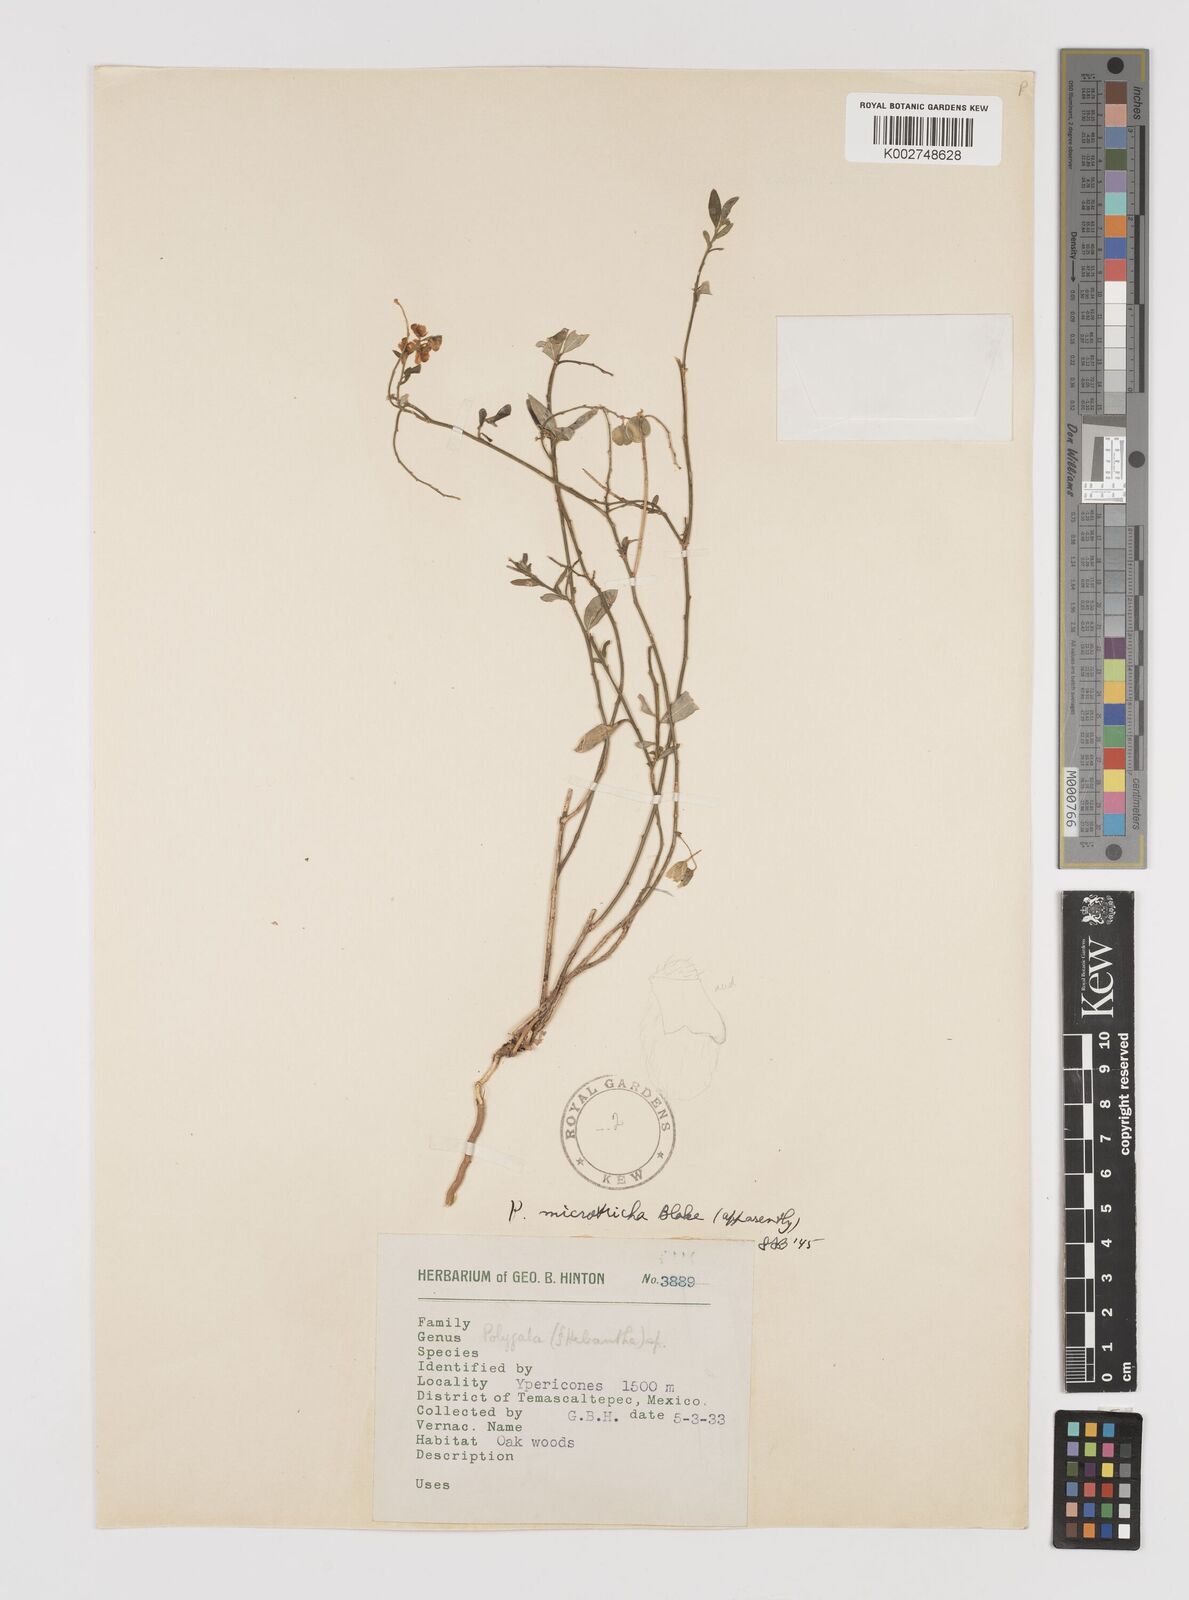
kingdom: Plantae
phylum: Tracheophyta
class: Magnoliopsida
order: Fabales
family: Polygalaceae
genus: Hebecarpa
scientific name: Hebecarpa
